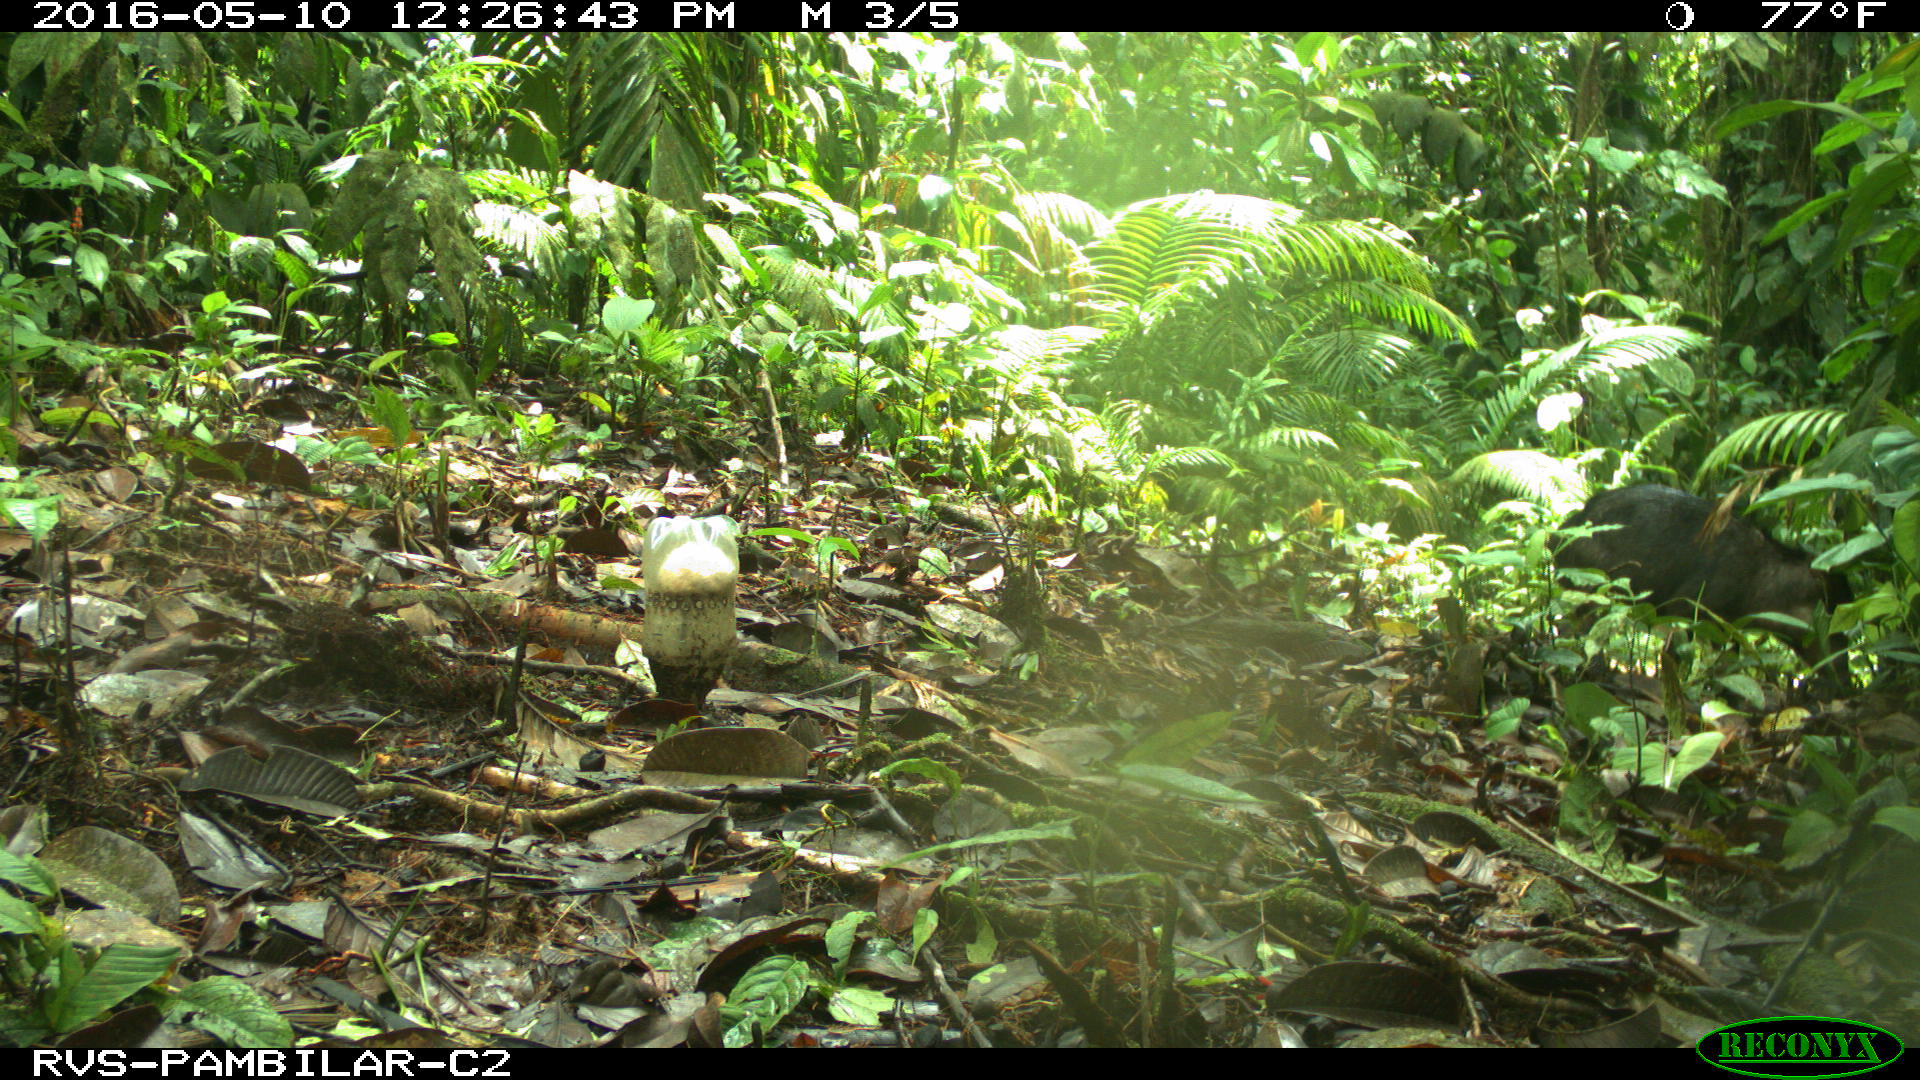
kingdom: Animalia
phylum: Chordata
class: Mammalia
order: Artiodactyla
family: Tayassuidae
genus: Tayassu
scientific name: Tayassu pecari
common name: White-lipped peccary
